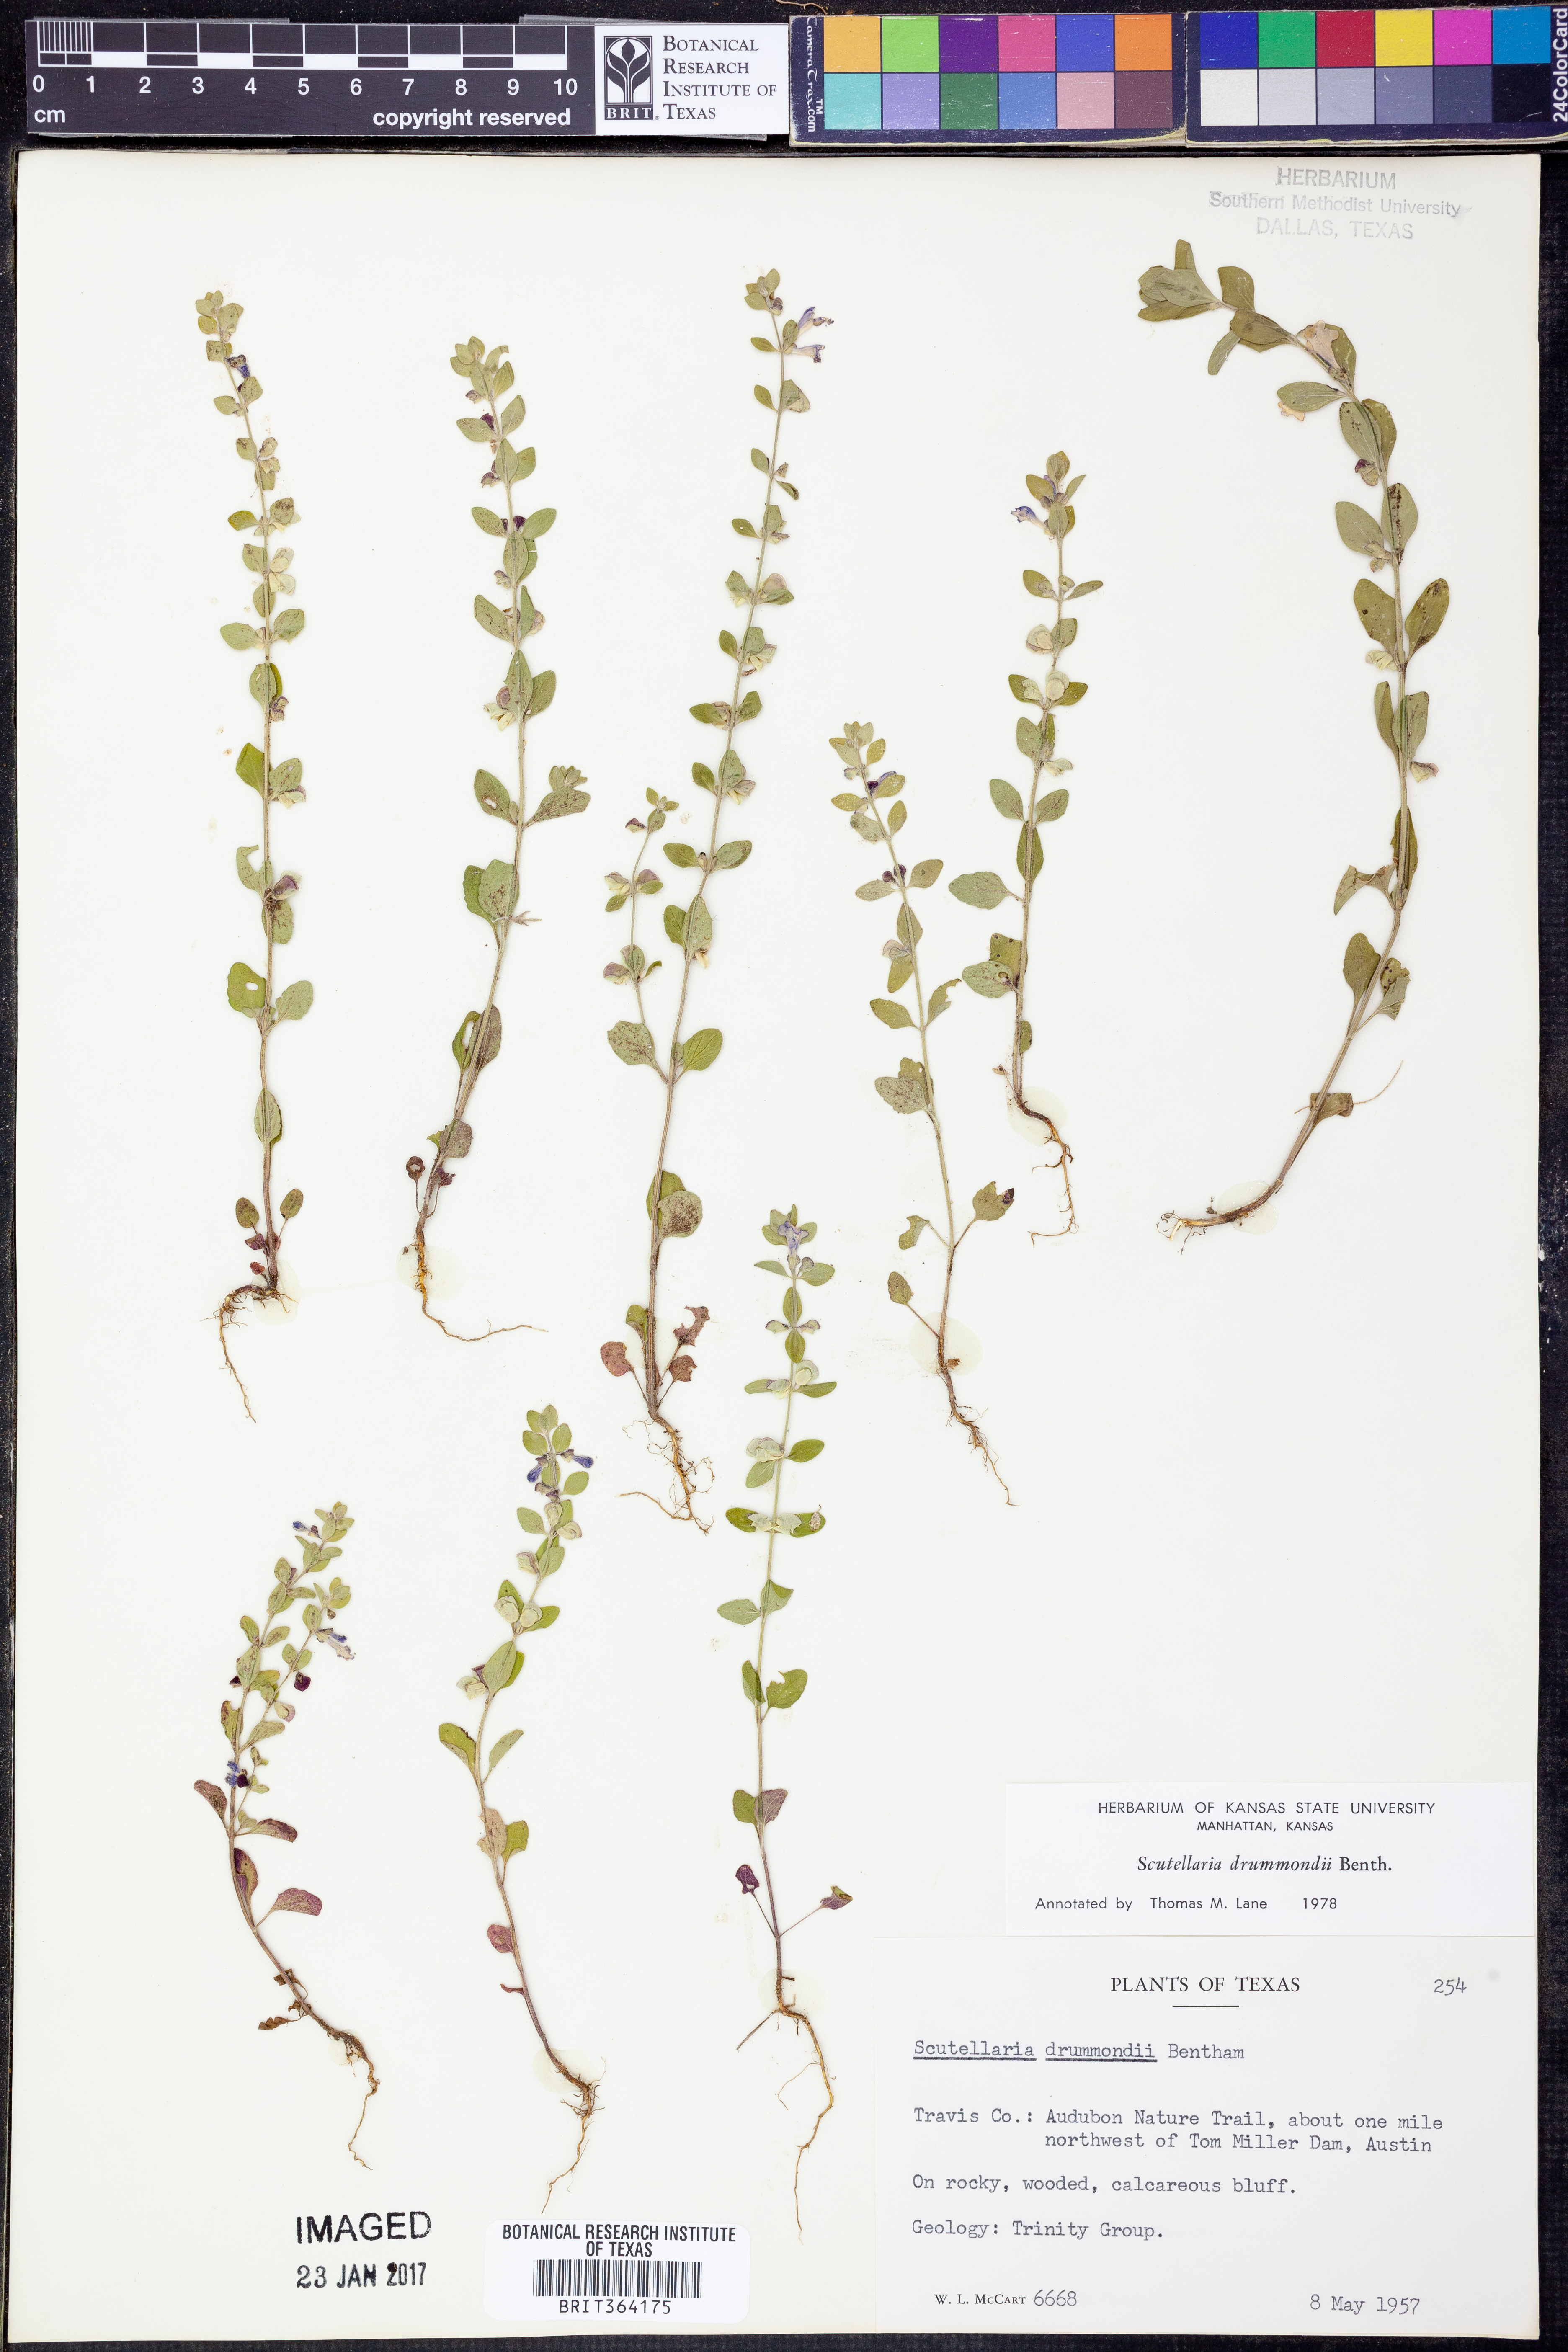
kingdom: Plantae
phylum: Tracheophyta
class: Magnoliopsida
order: Lamiales
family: Lamiaceae
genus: Scutellaria
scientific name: Scutellaria drummondii
